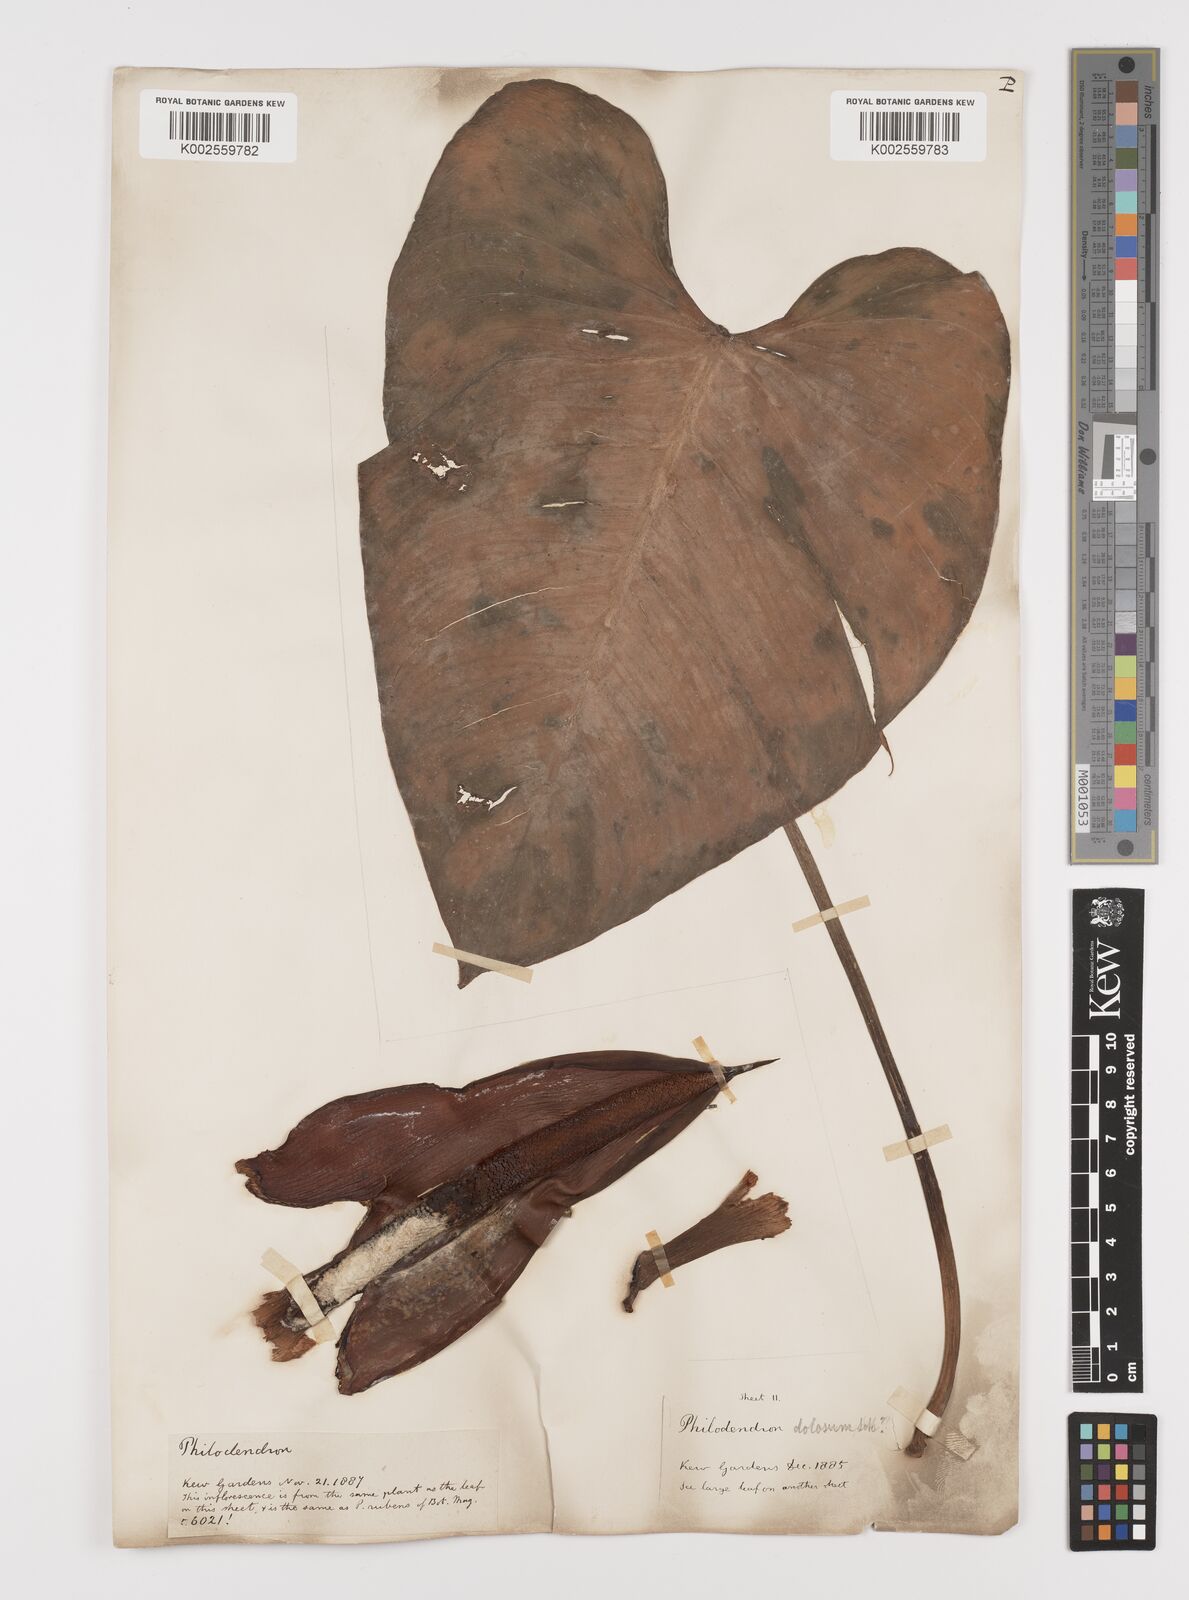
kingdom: Plantae
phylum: Tracheophyta
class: Liliopsida
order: Alismatales
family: Araceae
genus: Philodendron
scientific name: Philodendron ornatum
